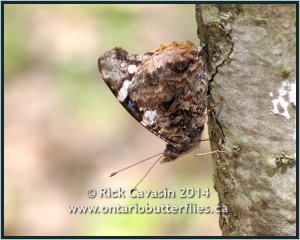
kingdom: Animalia
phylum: Arthropoda
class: Insecta
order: Lepidoptera
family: Nymphalidae
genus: Vanessa
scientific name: Vanessa atalanta
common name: Red Admiral
